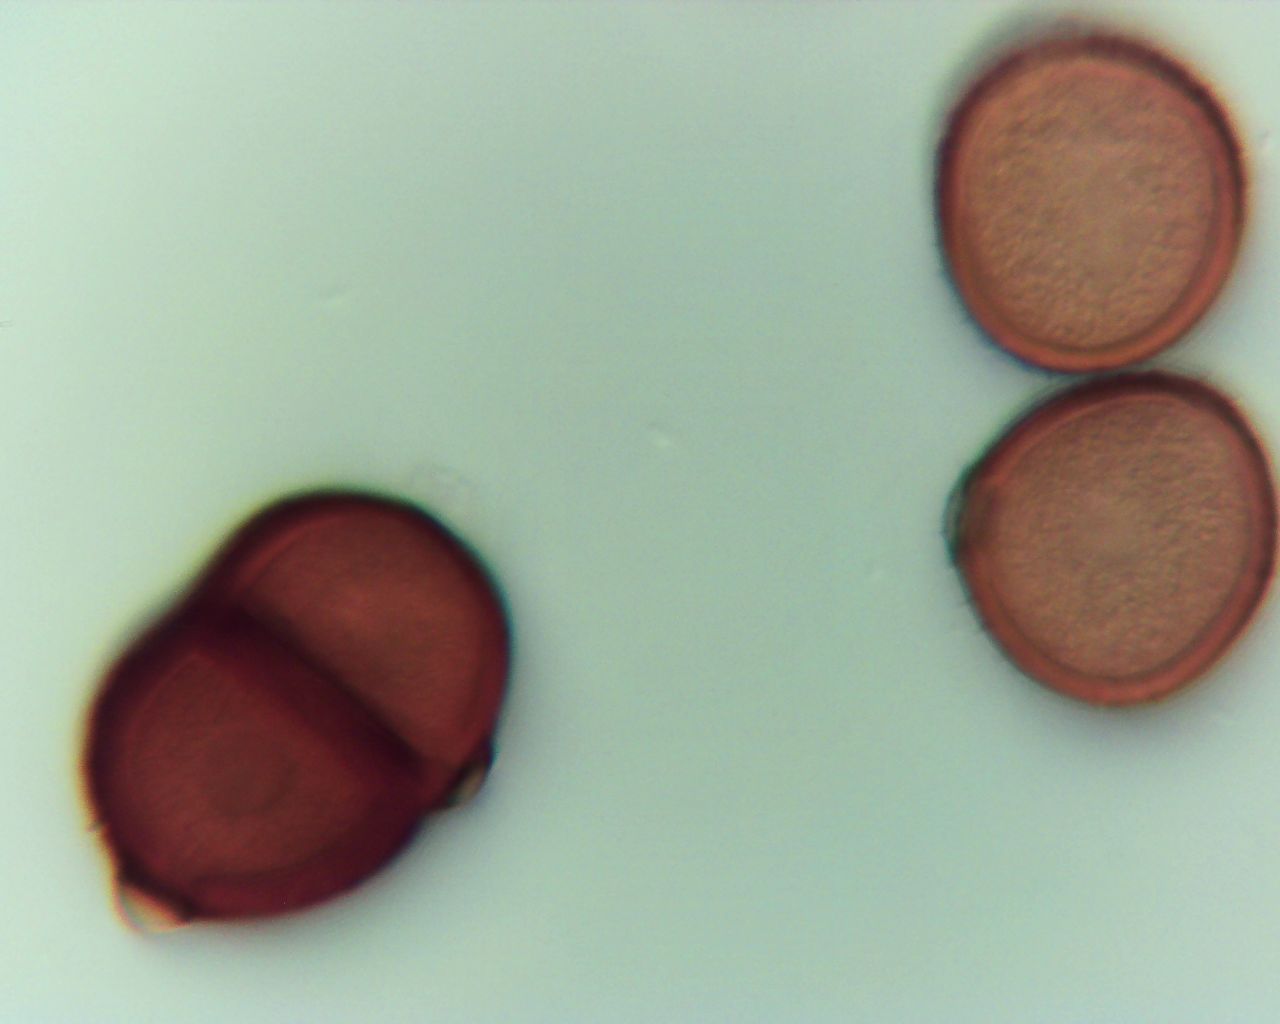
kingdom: Fungi
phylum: Basidiomycota
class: Pucciniomycetes
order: Pucciniales
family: Pucciniaceae
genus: Puccinia
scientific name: Puccinia komarovii
